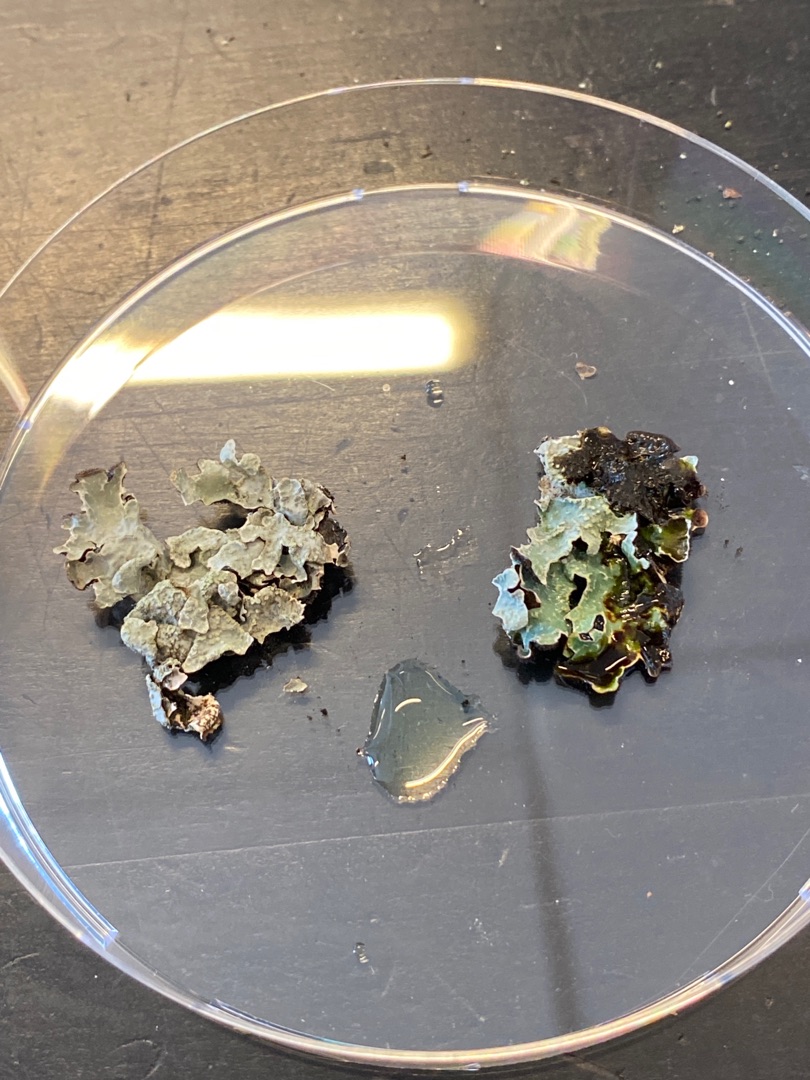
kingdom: Fungi
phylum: Ascomycota
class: Lecanoromycetes
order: Lecanorales
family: Parmeliaceae
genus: Parmelia
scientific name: Parmelia sulcata
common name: Rynket skållav
